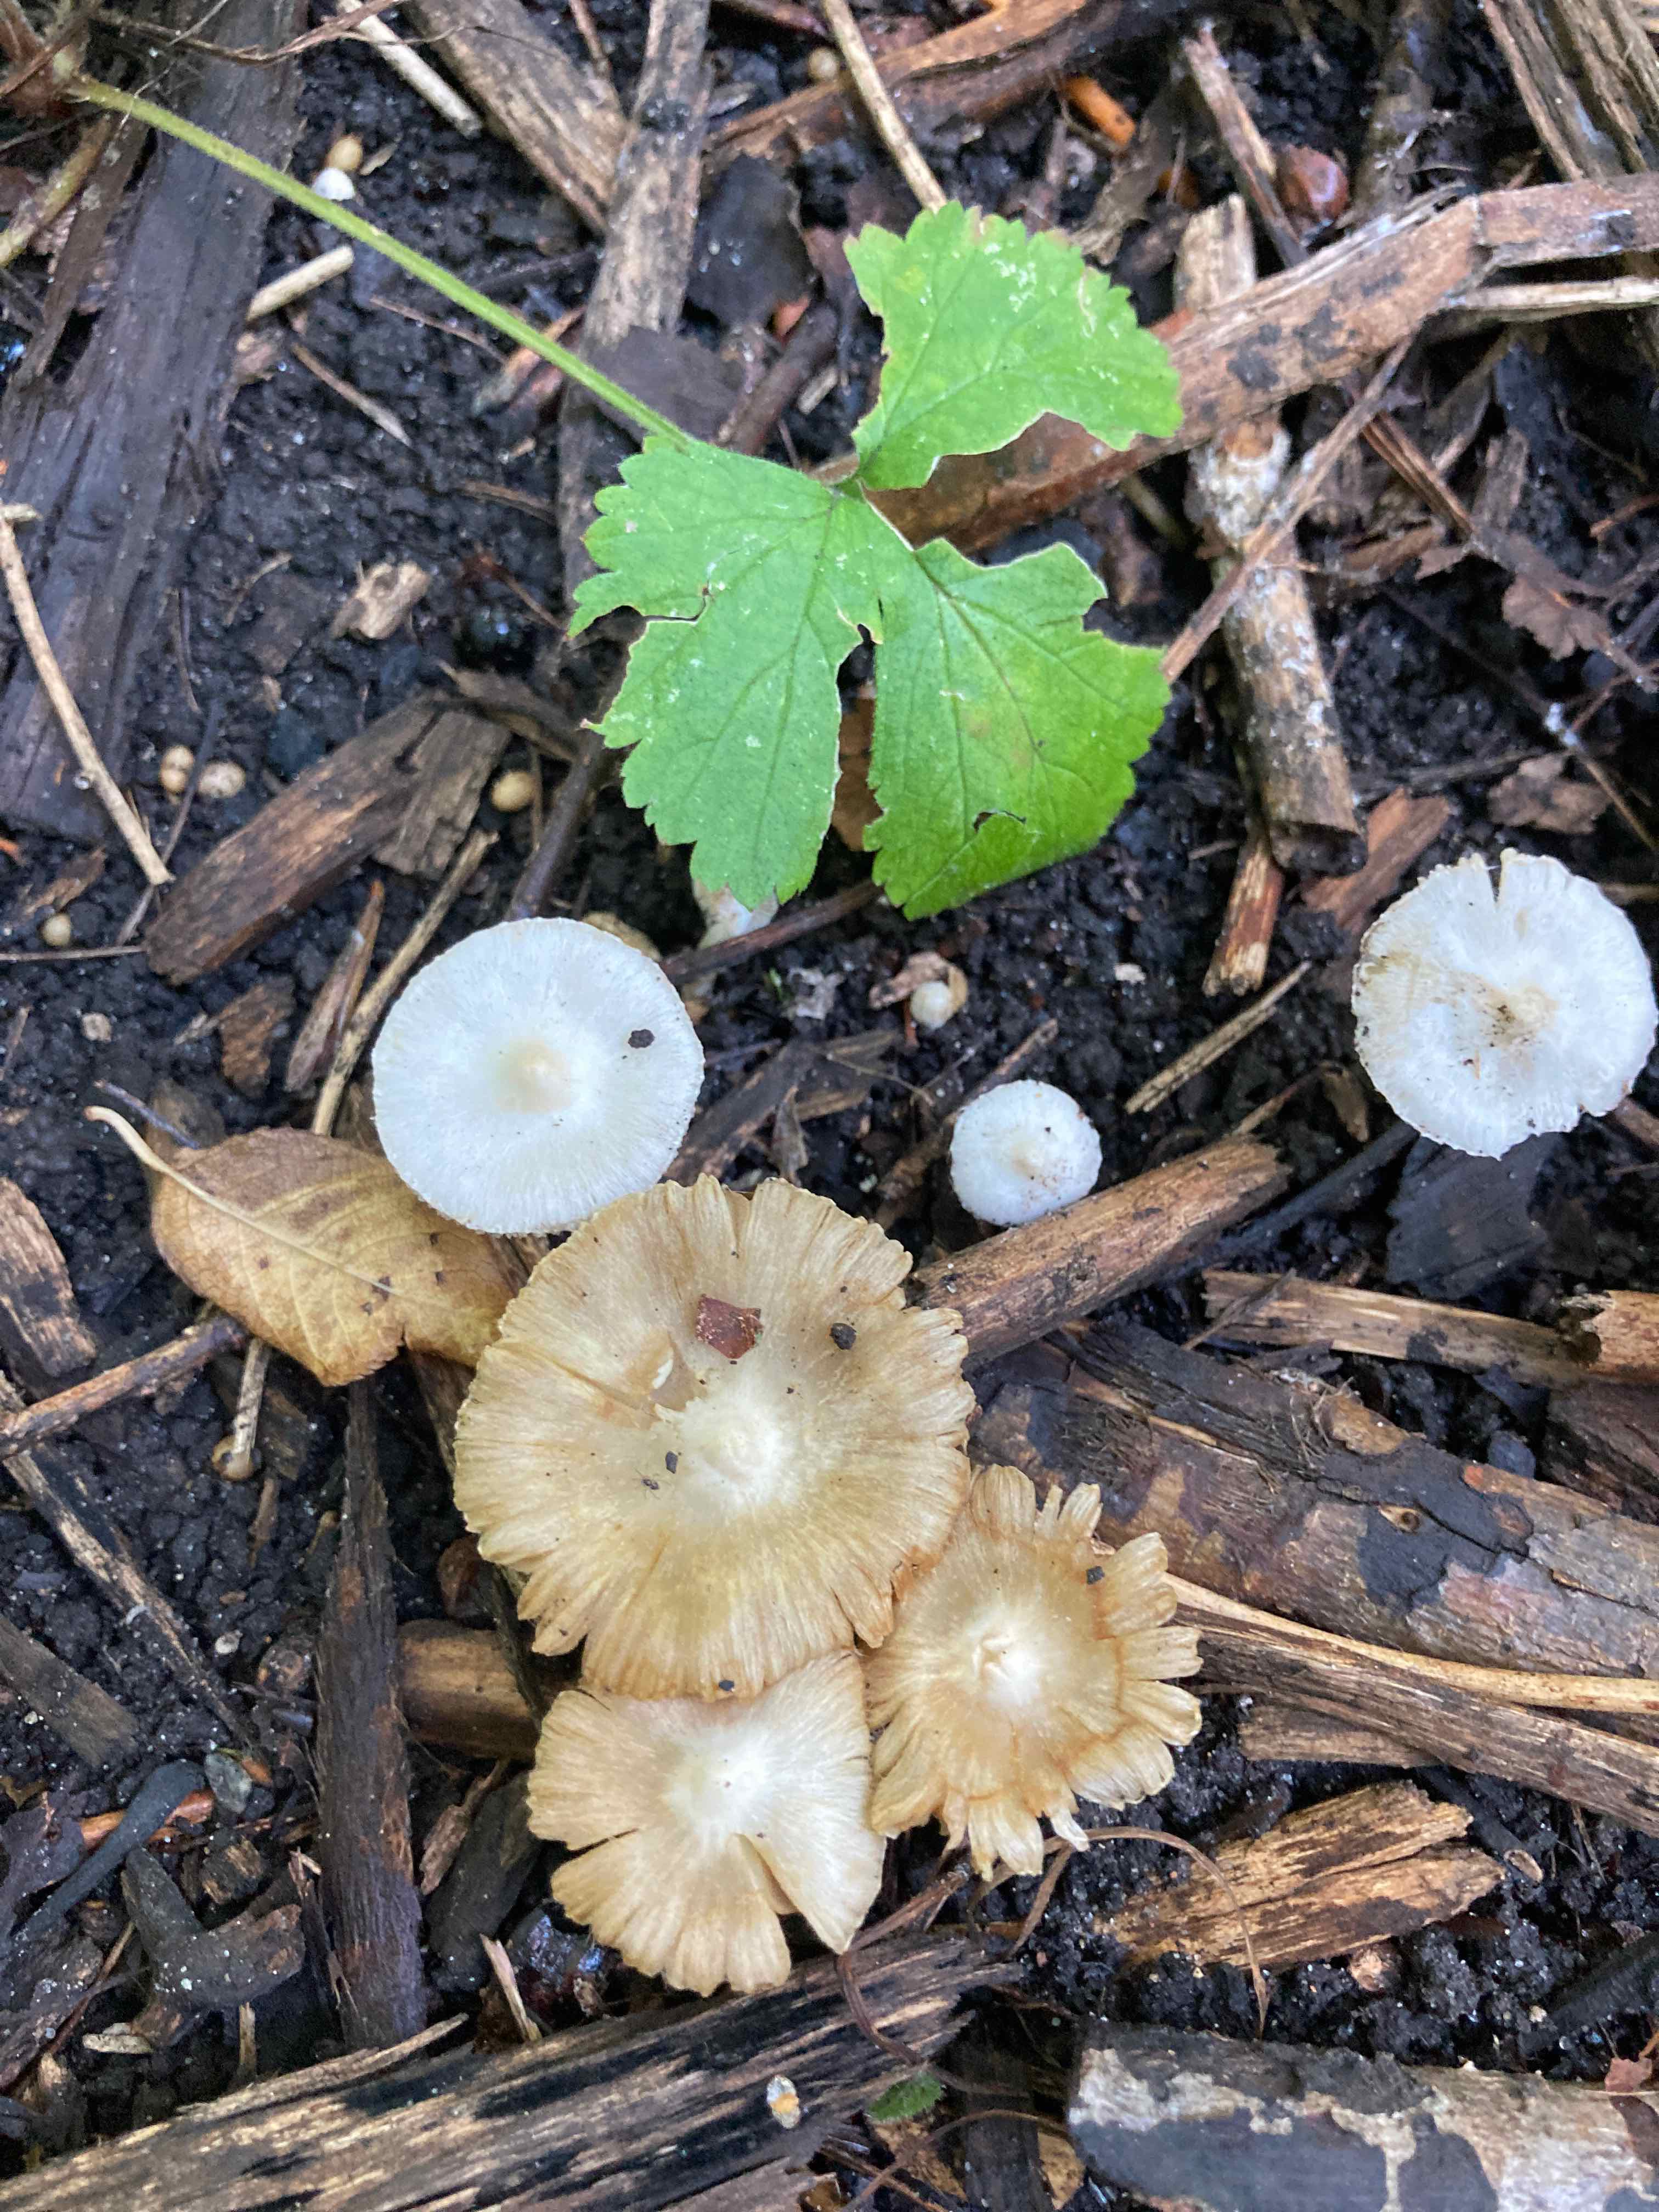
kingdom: Fungi
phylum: Basidiomycota
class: Agaricomycetes
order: Agaricales
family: Inocybaceae
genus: Inocybe
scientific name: Inocybe
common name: almindelig trævlhat
